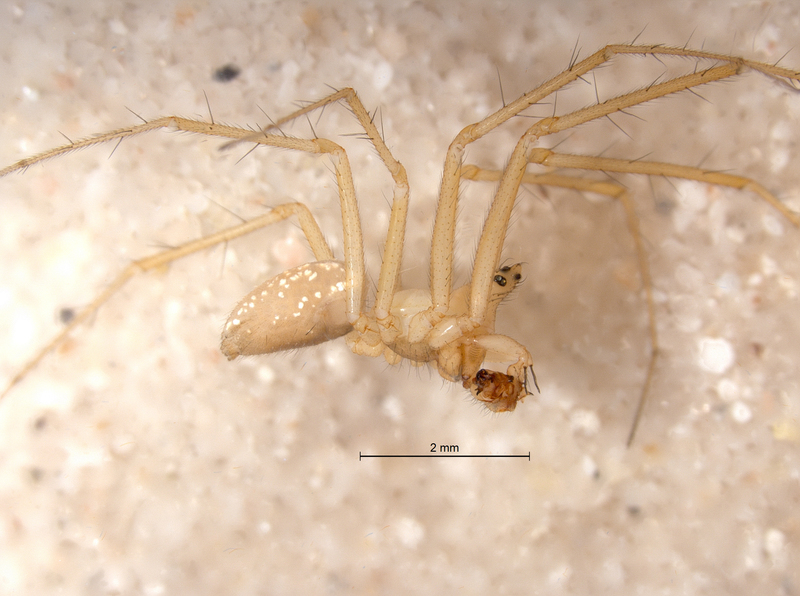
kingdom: Animalia
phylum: Arthropoda
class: Arachnida
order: Araneae
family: Linyphiidae
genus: Bolyphantes
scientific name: Bolyphantes alticeps
